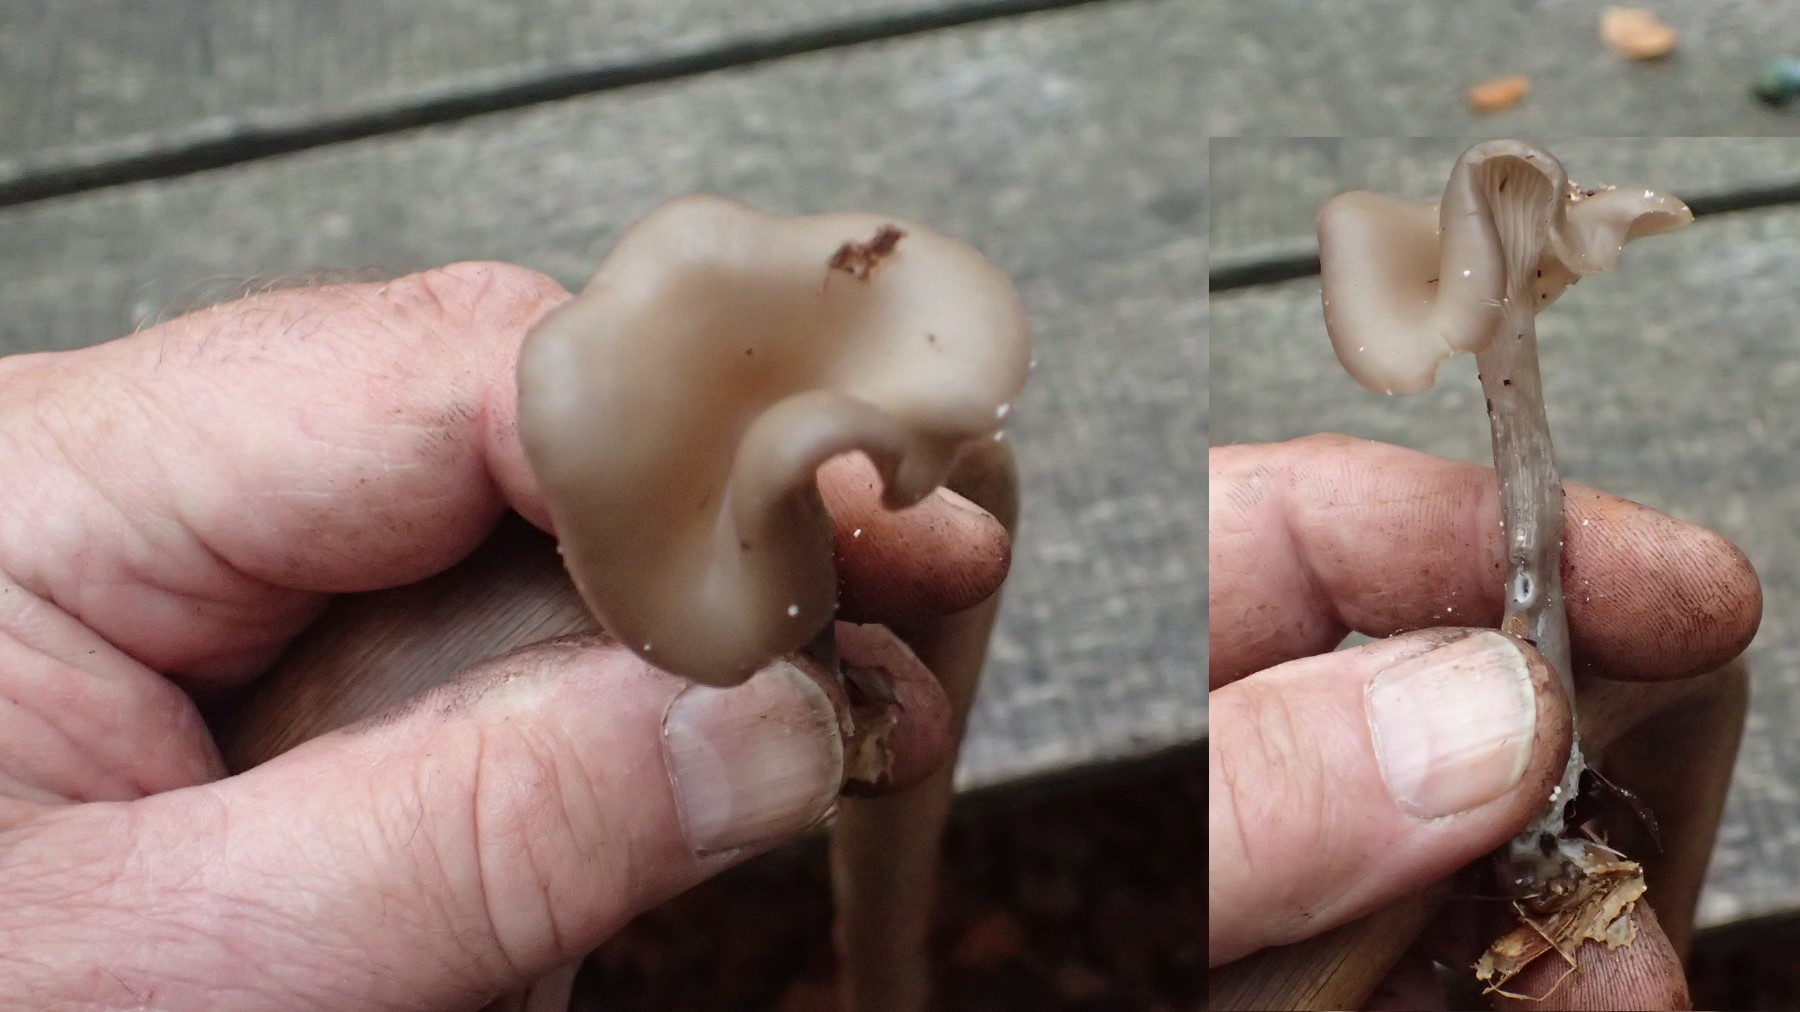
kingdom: Fungi
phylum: Basidiomycota
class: Agaricomycetes
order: Agaricales
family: Pseudoclitocybaceae
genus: Pseudoclitocybe
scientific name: Pseudoclitocybe cyathiformis
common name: almindelig bægertragthat
